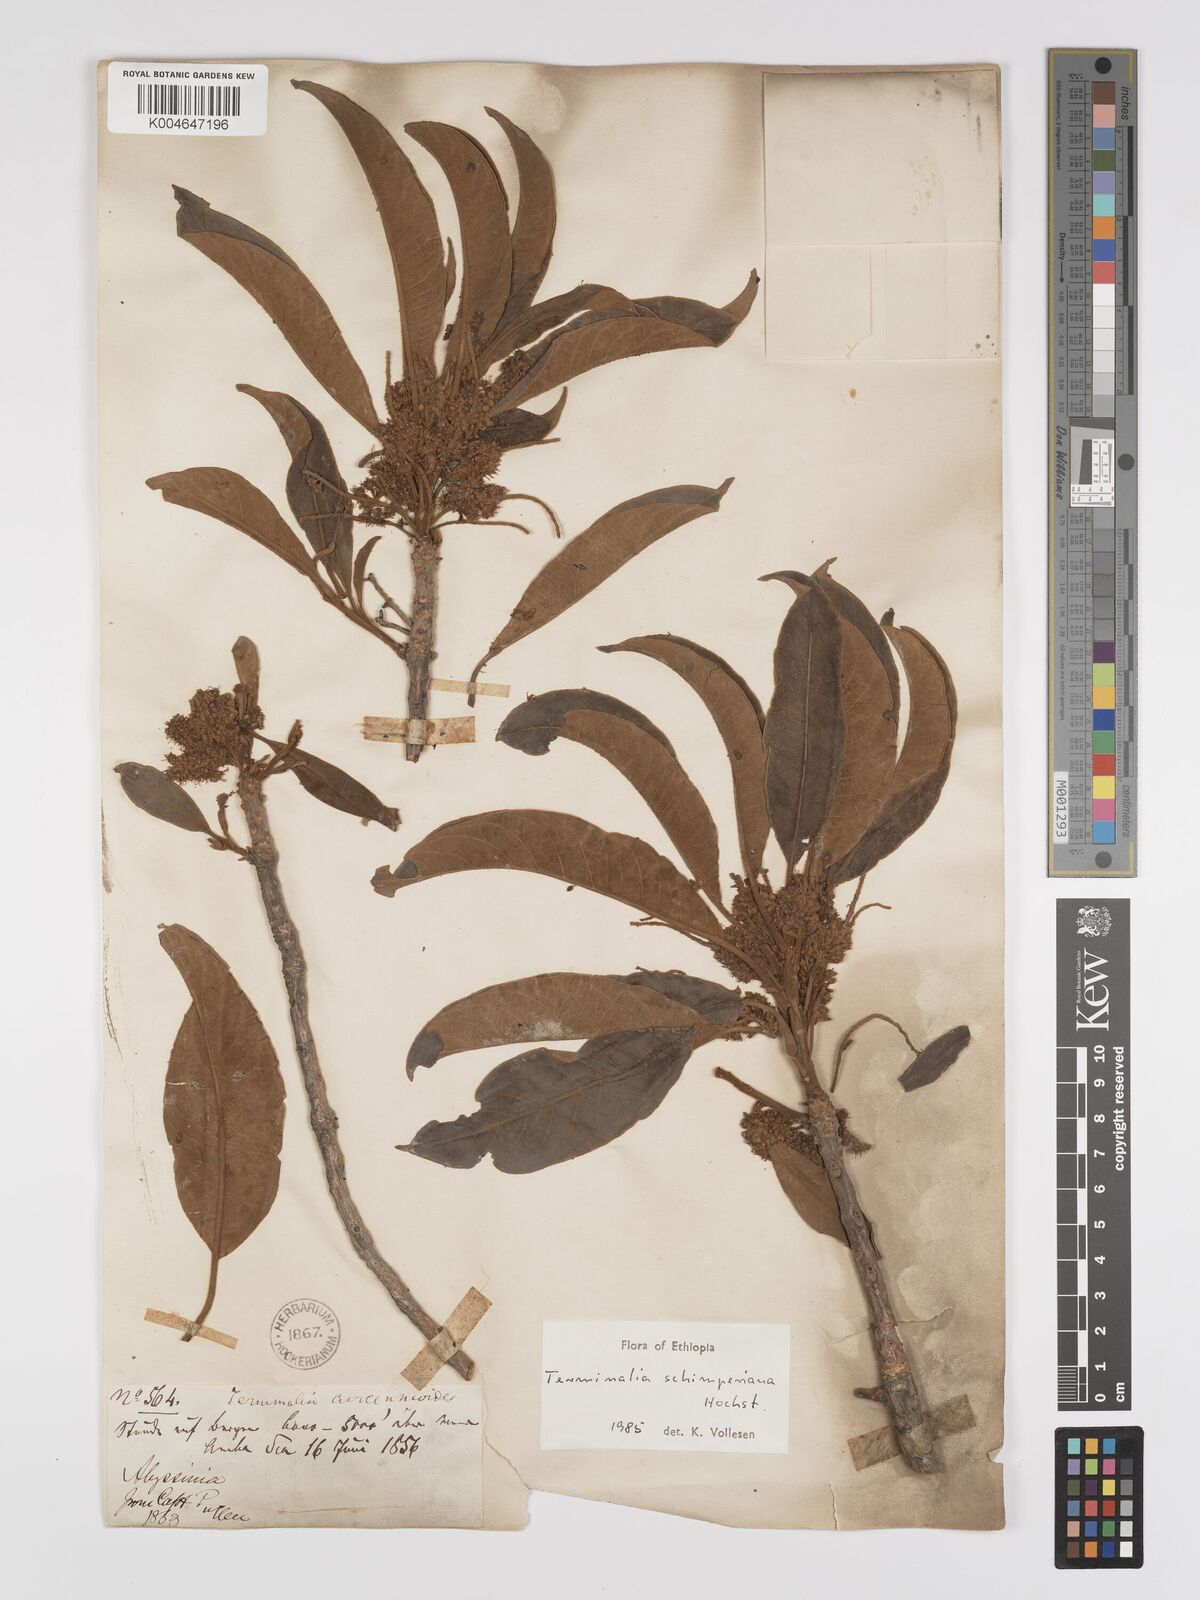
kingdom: Plantae
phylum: Tracheophyta
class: Magnoliopsida
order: Myrtales
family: Combretaceae
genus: Terminalia
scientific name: Terminalia schimperiana
